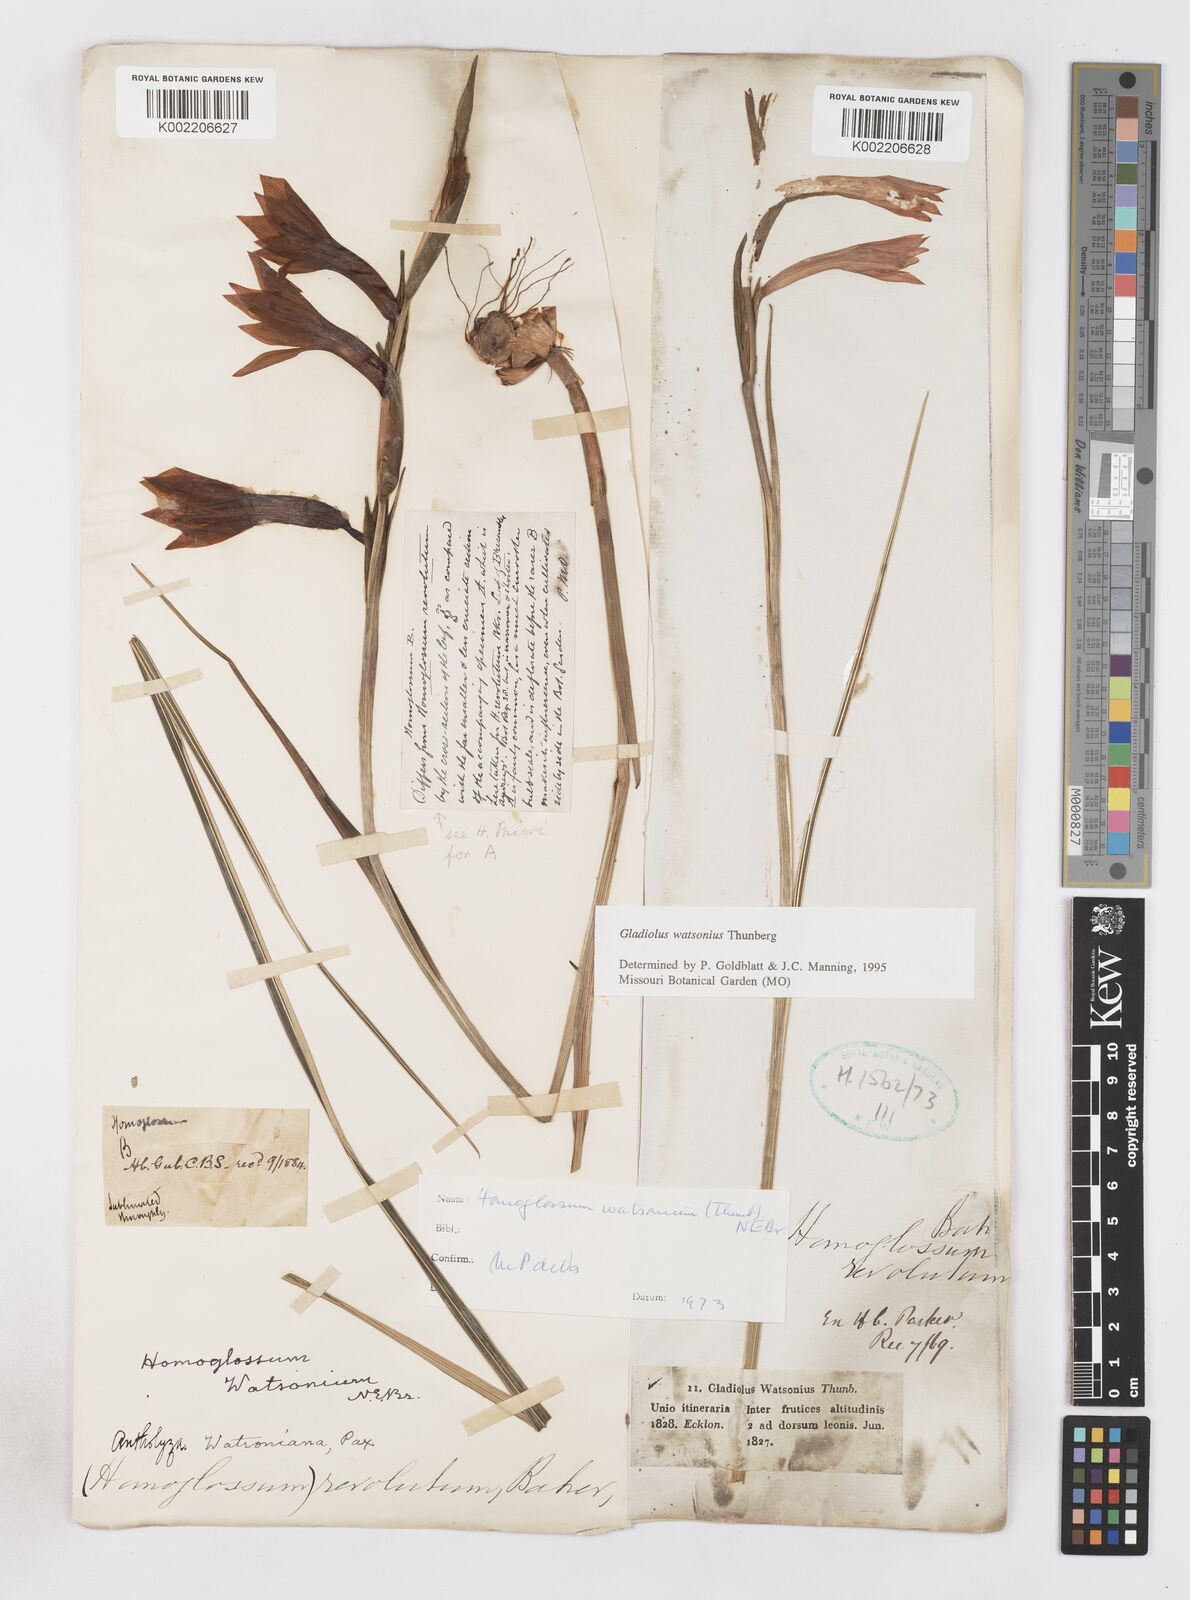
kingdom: Plantae
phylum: Tracheophyta
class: Liliopsida
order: Asparagales
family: Iridaceae
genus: Gladiolus
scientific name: Gladiolus watsonius
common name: Red afrikaner
